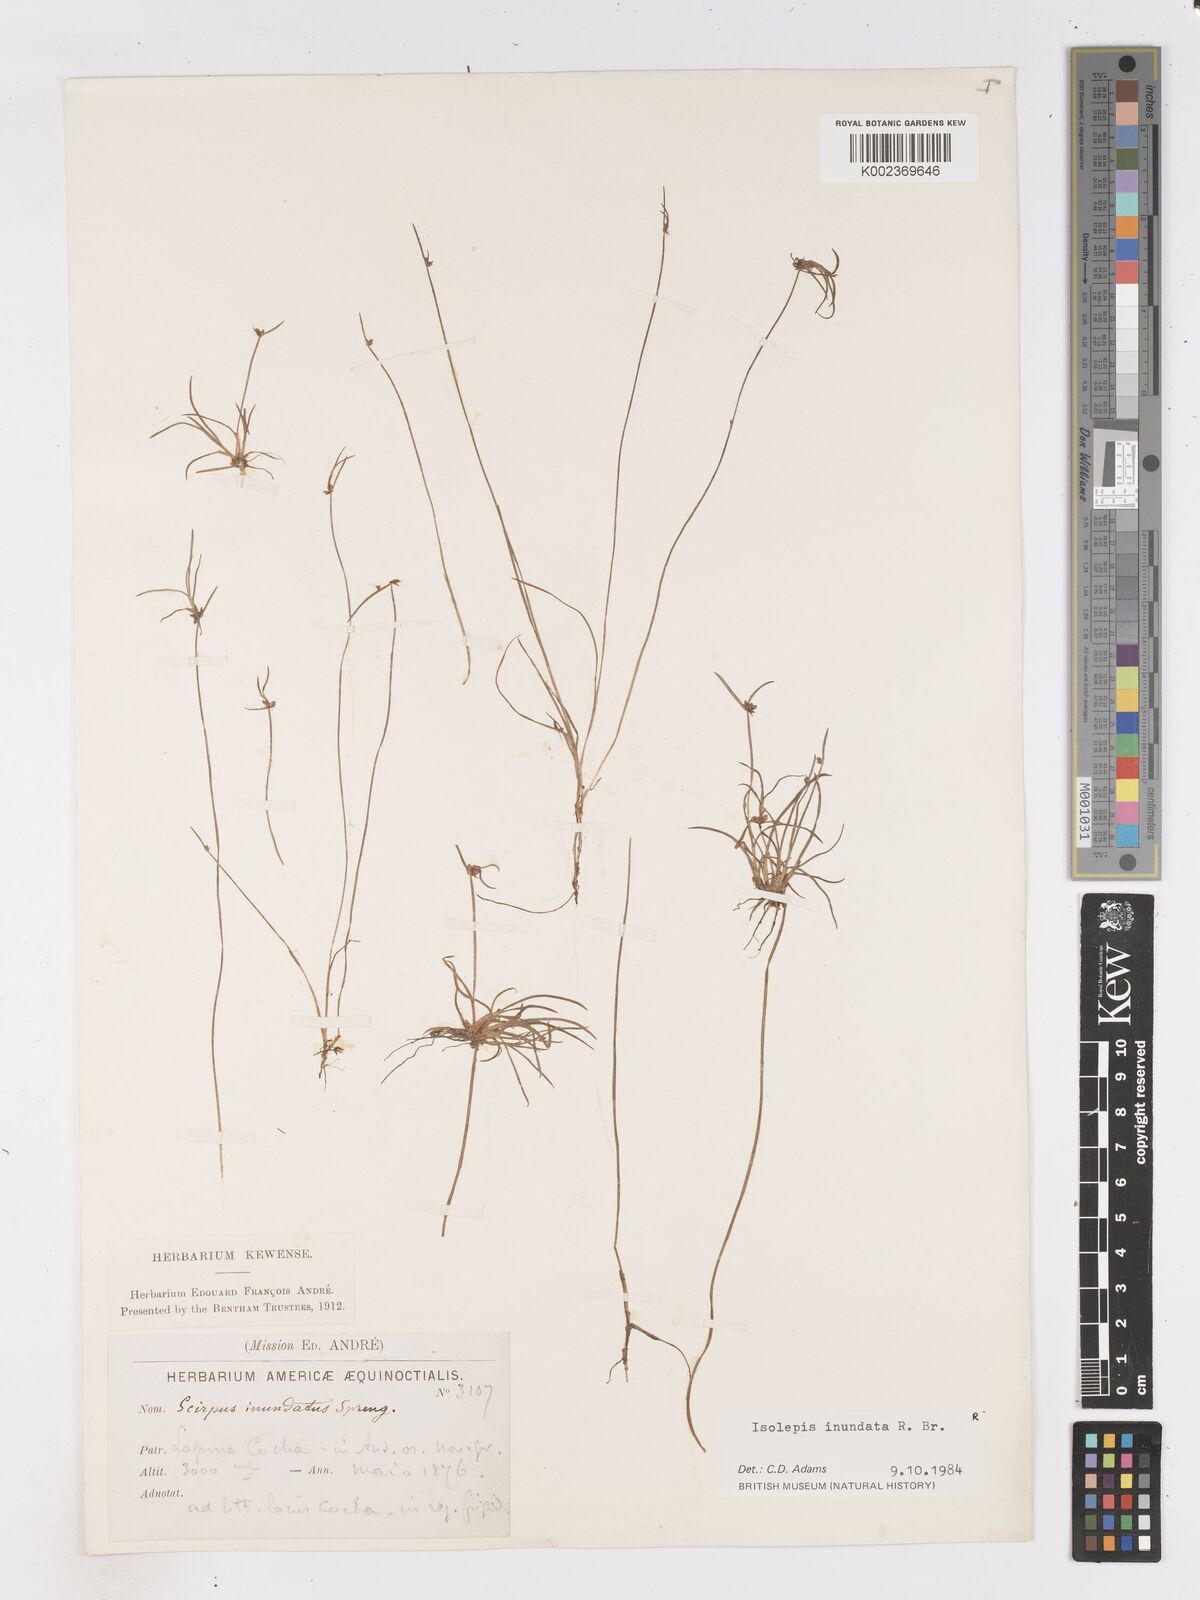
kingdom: Plantae
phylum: Tracheophyta
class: Liliopsida
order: Poales
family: Cyperaceae
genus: Isolepis
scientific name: Isolepis inundata
